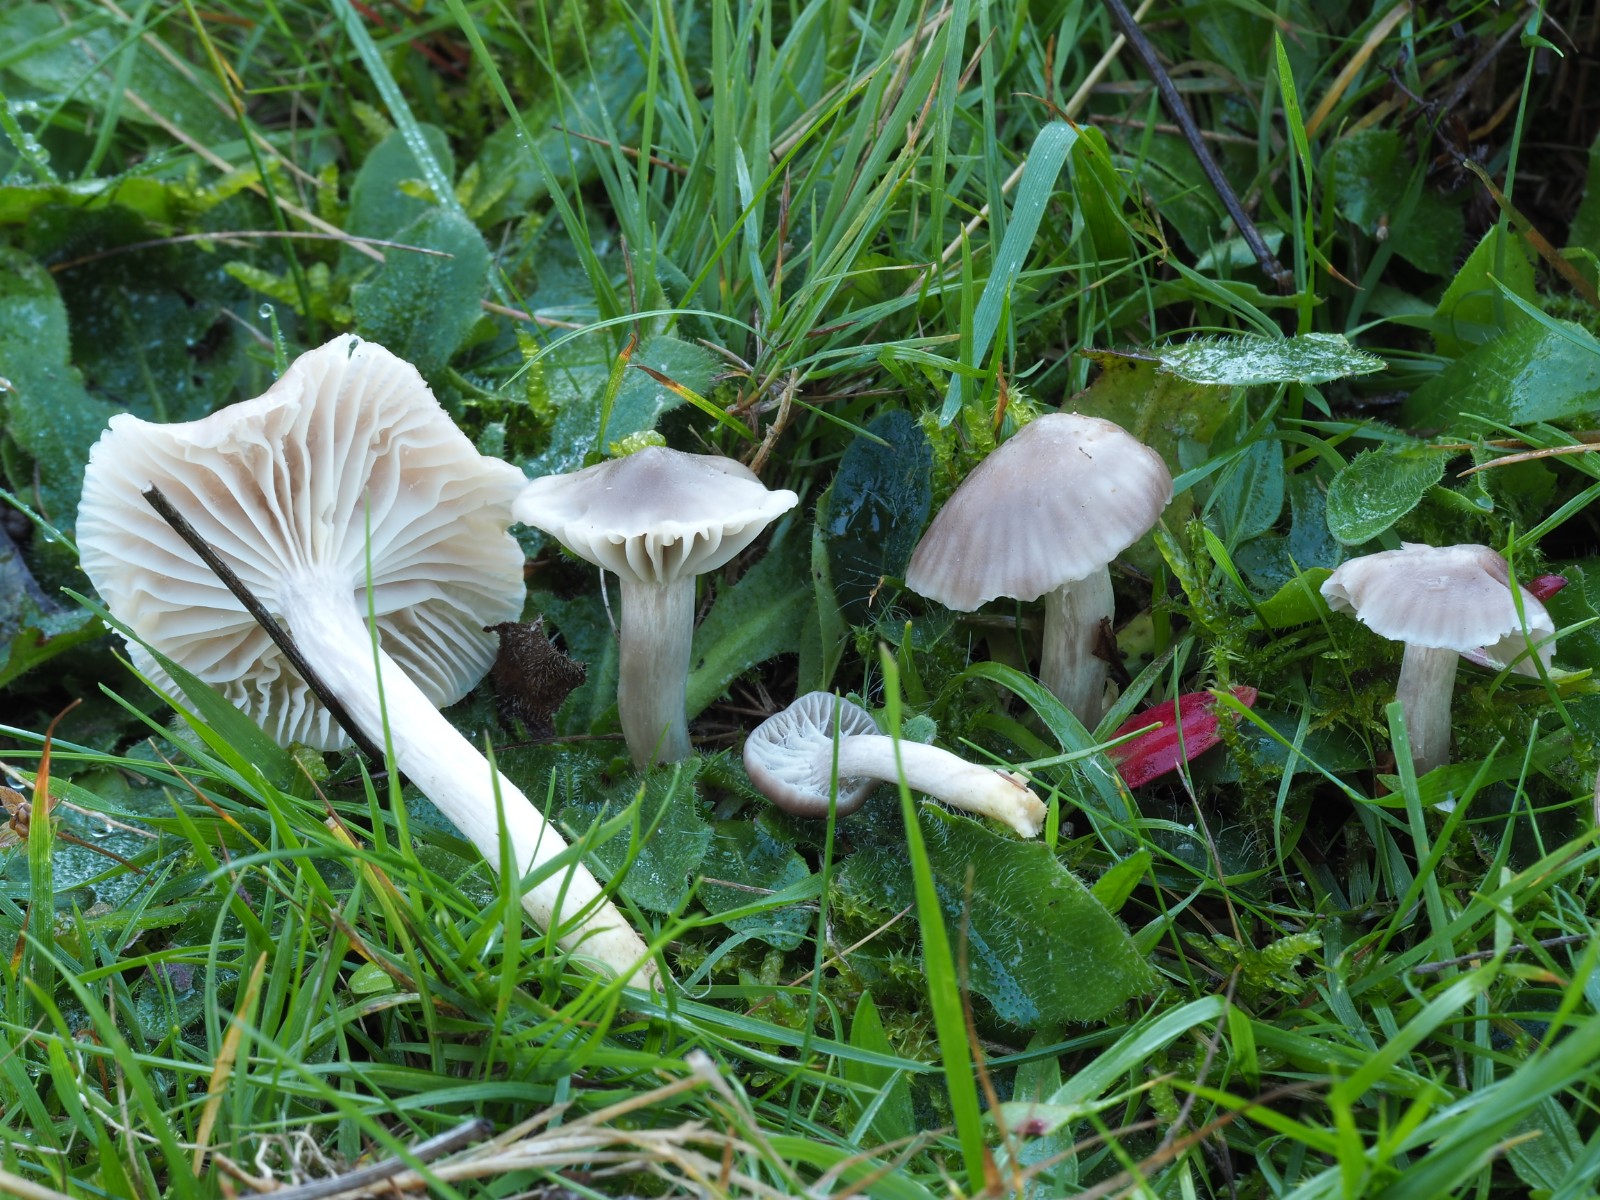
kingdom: Fungi
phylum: Basidiomycota
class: Agaricomycetes
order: Agaricales
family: Hygrophoraceae
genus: Cuphophyllus
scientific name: Cuphophyllus flavipesoides
